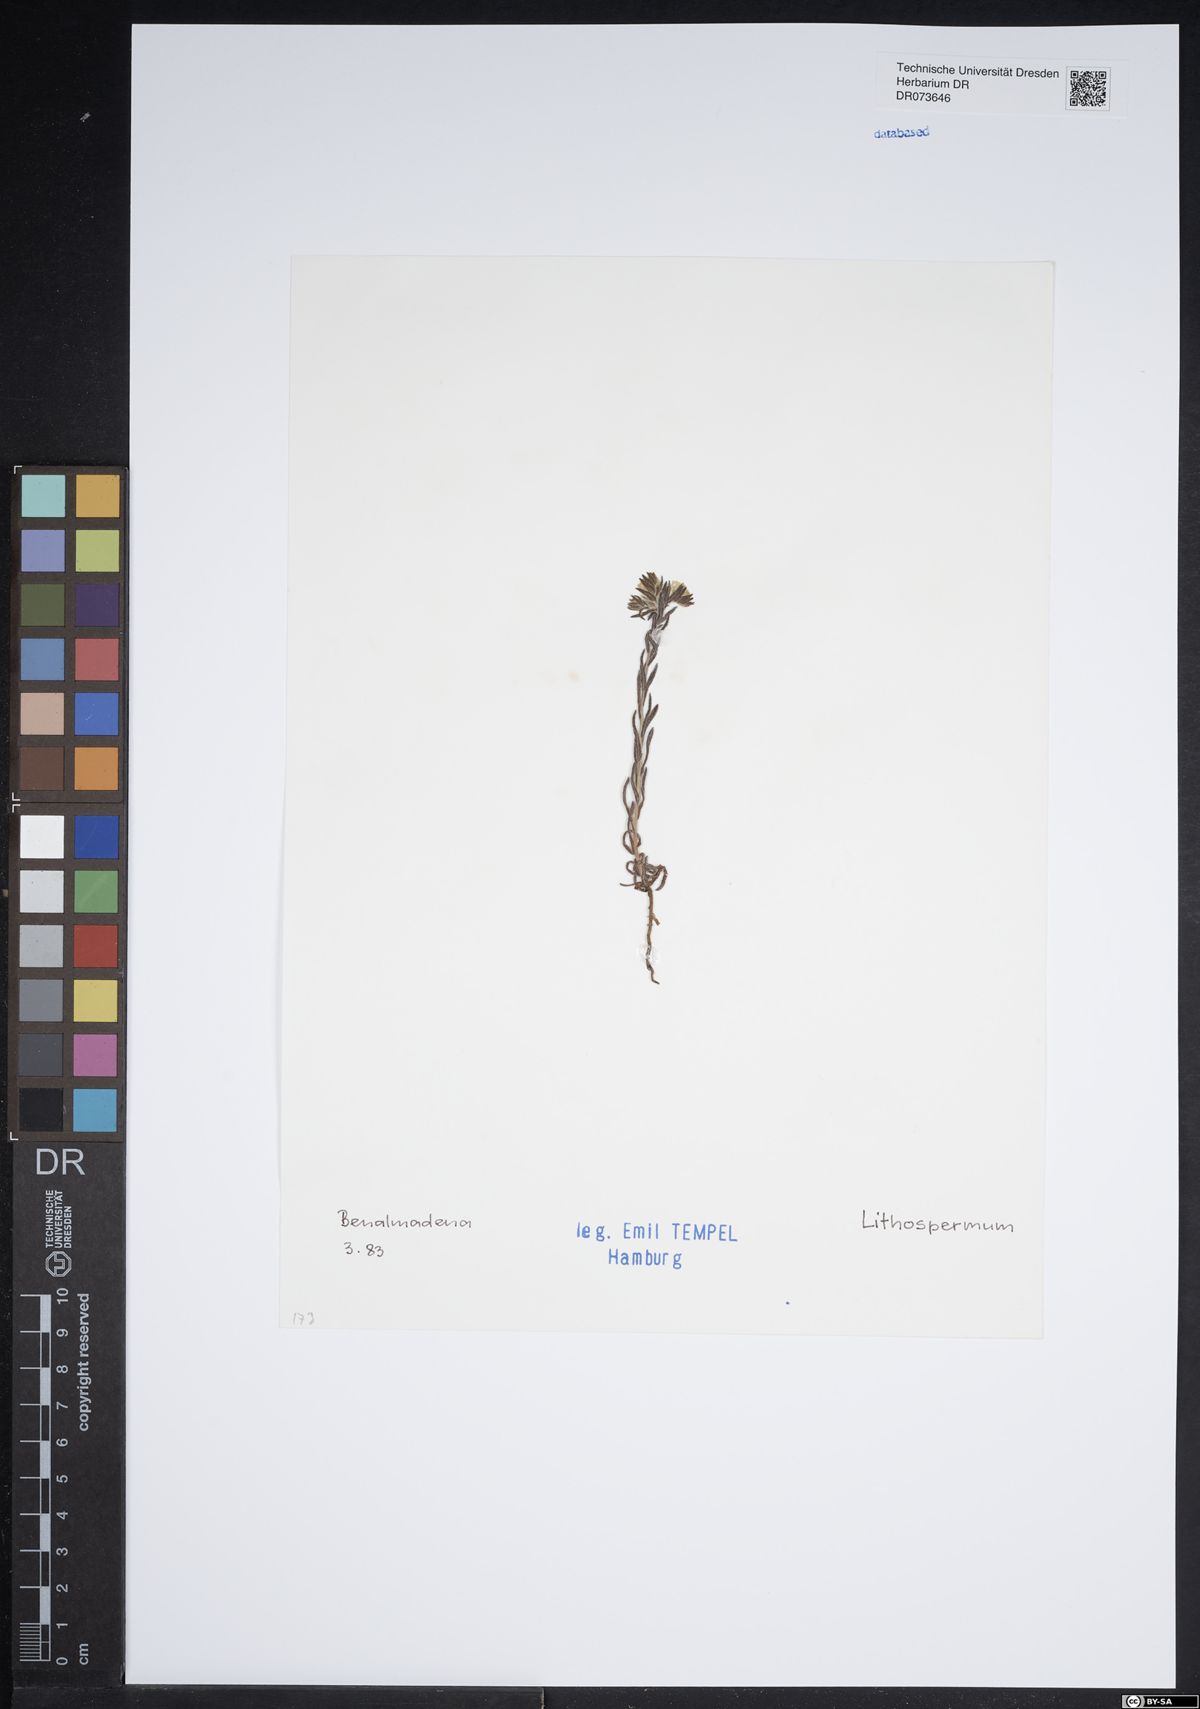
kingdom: Plantae
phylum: Tracheophyta
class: Magnoliopsida
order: Boraginales
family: Boraginaceae
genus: Lithospermum
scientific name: Lithospermum
